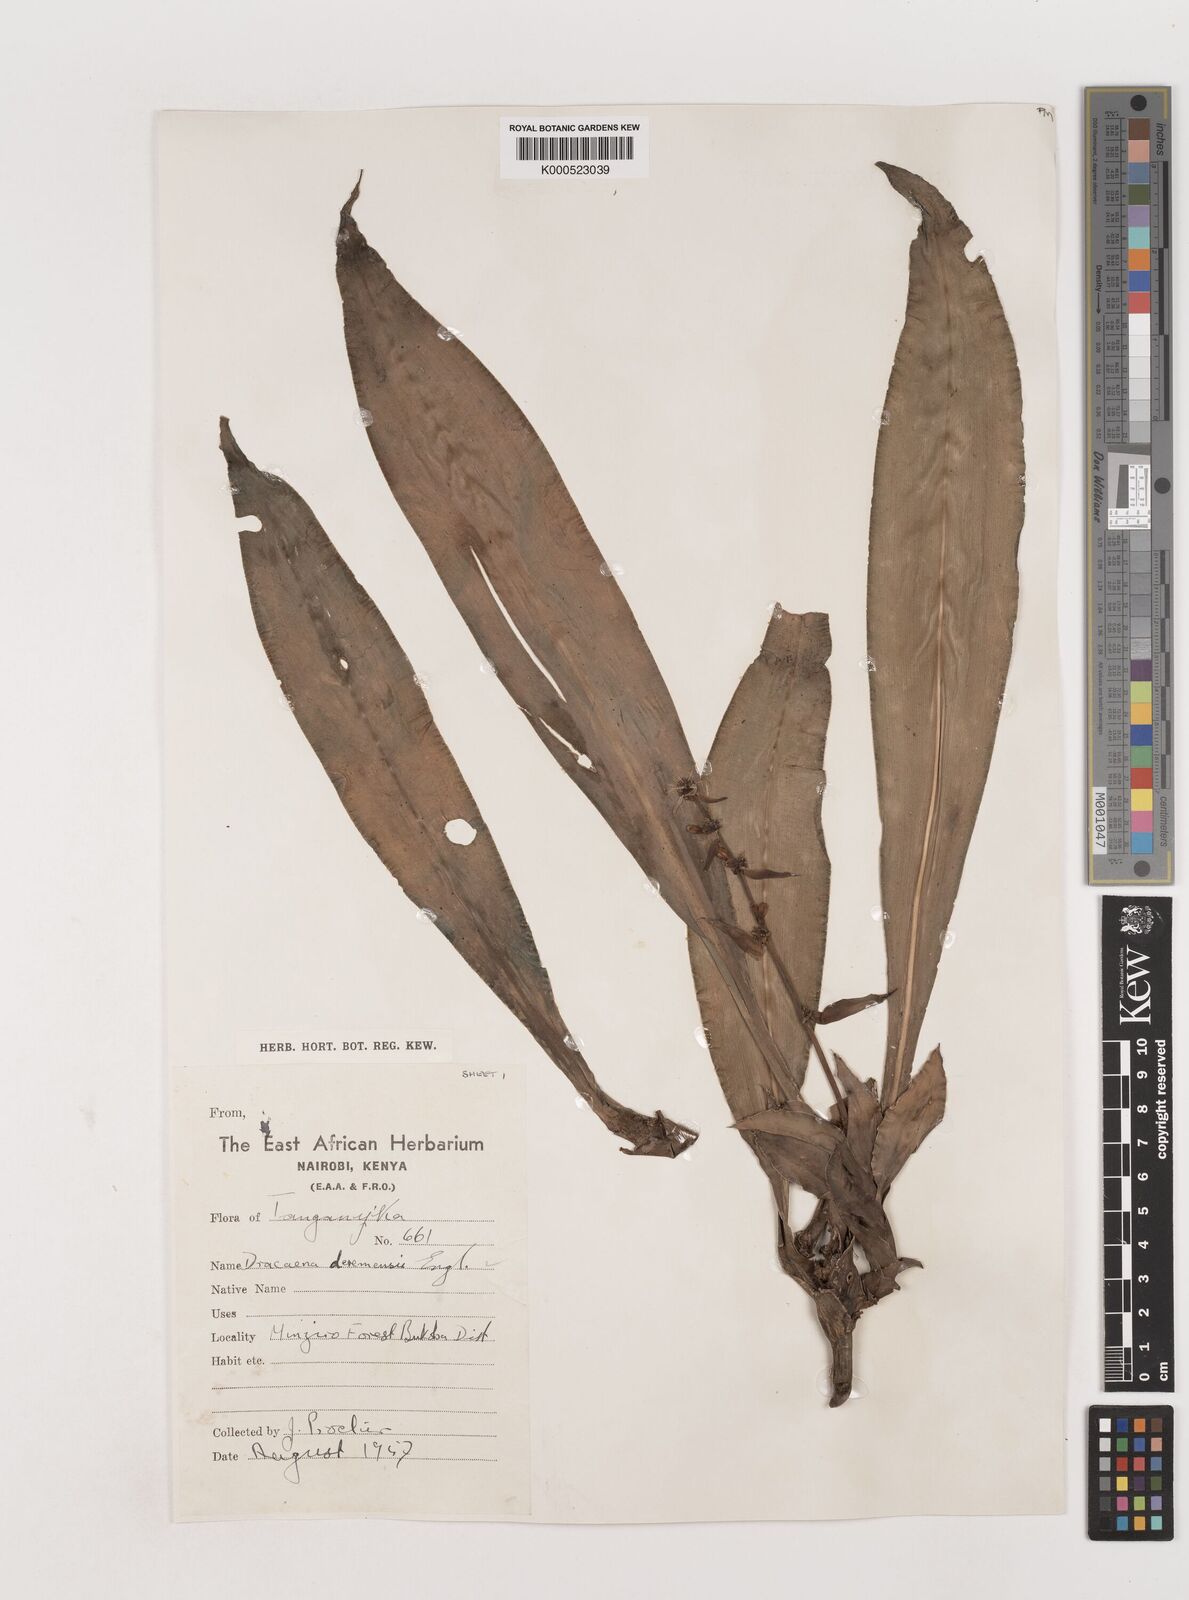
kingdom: Plantae
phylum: Tracheophyta
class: Liliopsida
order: Asparagales
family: Asparagaceae
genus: Dracaena
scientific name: Dracaena fragrans
